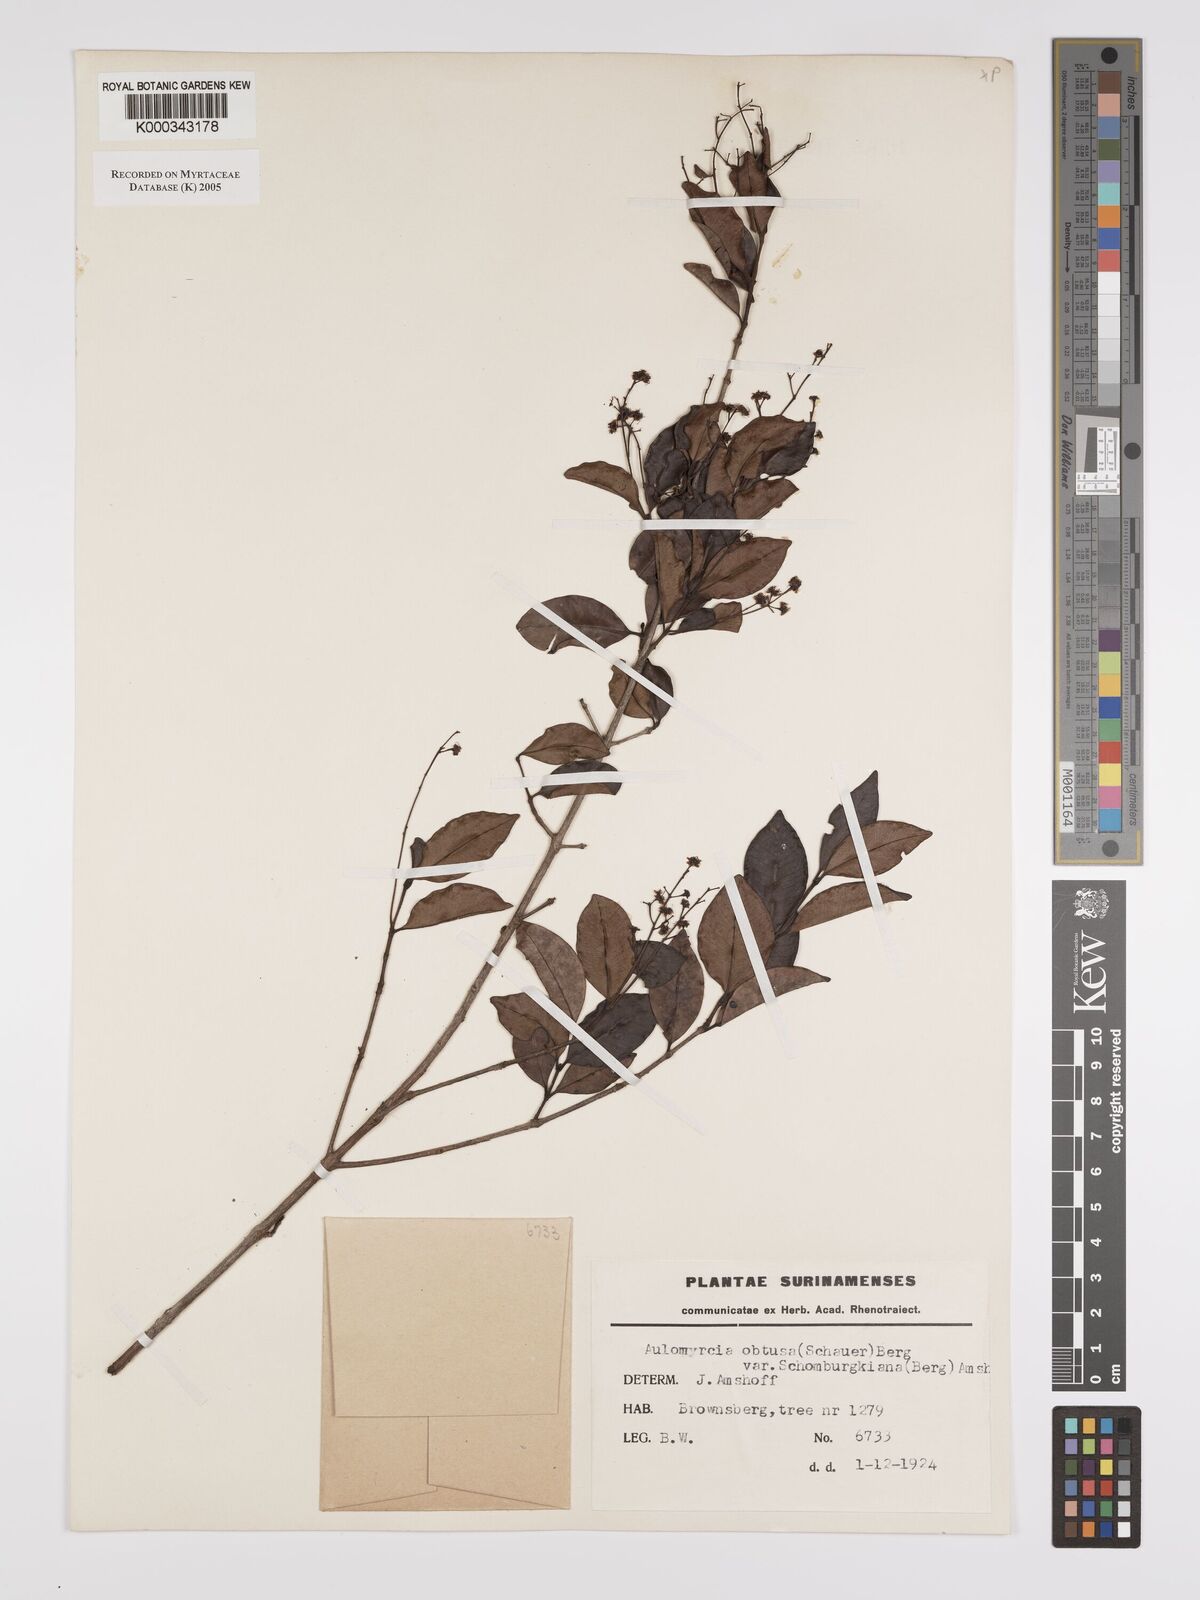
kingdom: Plantae
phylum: Tracheophyta
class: Magnoliopsida
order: Myrtales
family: Myrtaceae
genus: Myrcia
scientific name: Myrcia guianensis
